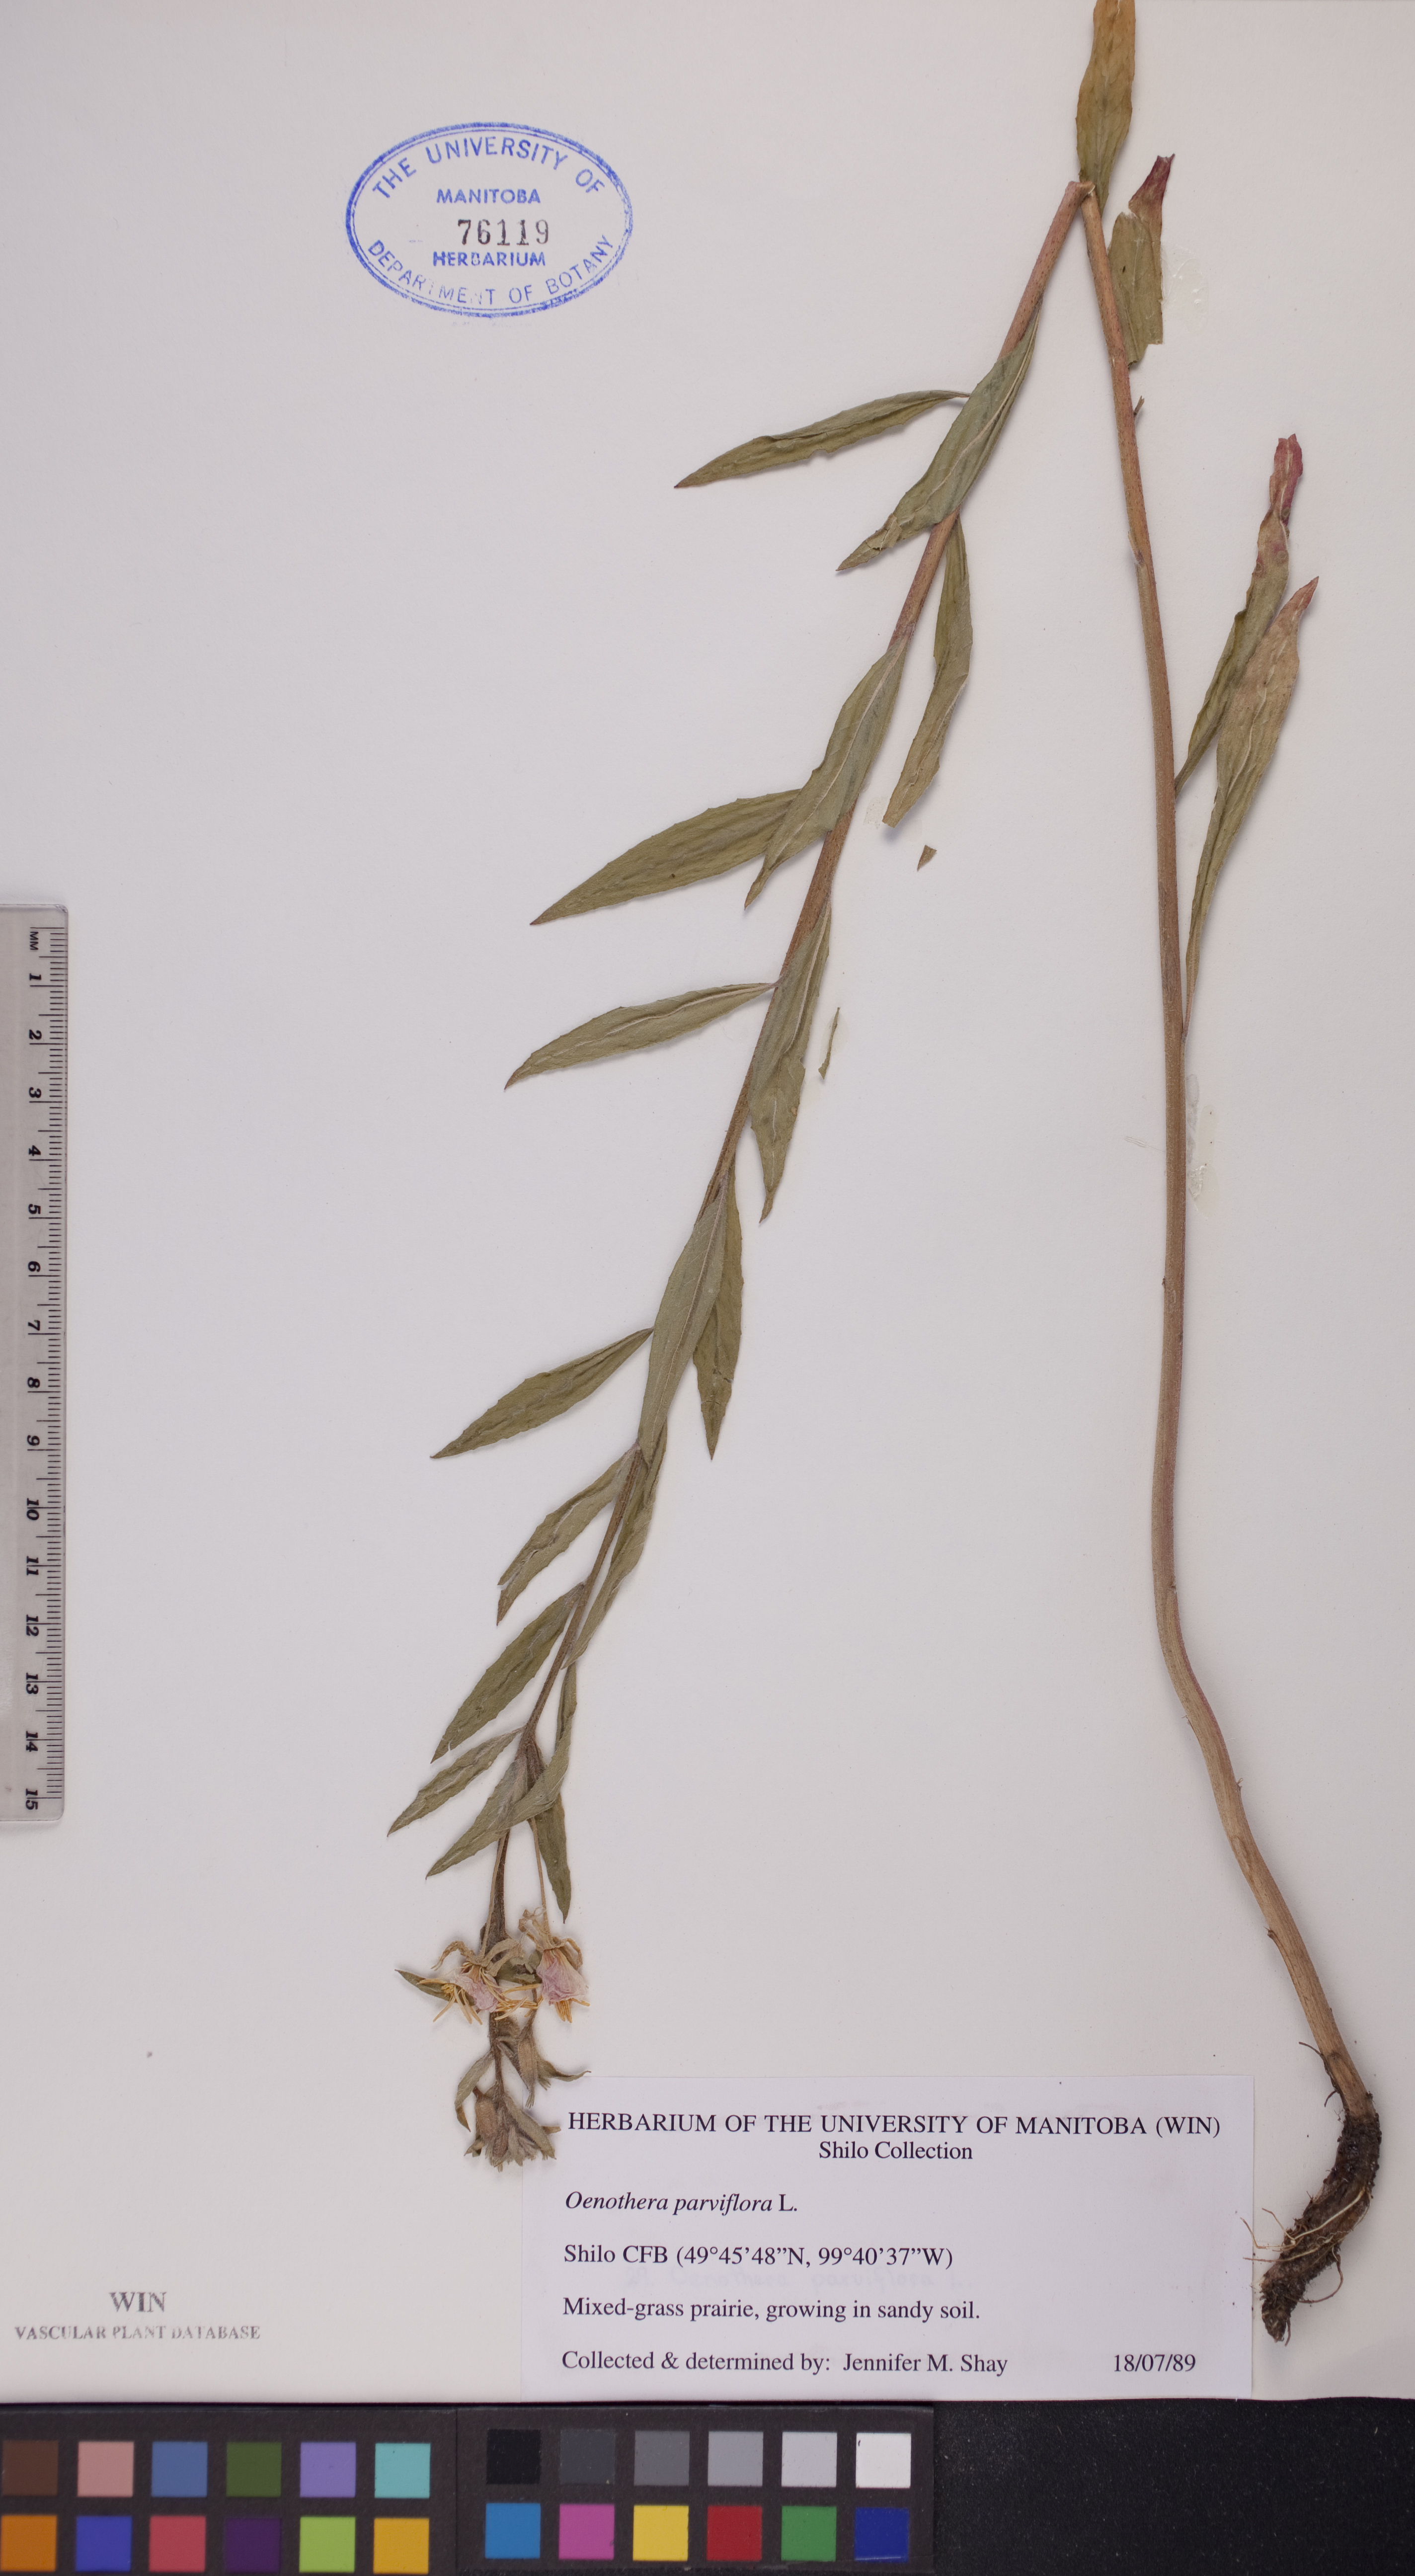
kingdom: Plantae
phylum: Tracheophyta
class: Magnoliopsida
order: Myrtales
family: Onagraceae
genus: Oenothera
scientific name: Oenothera parviflora
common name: Least evening-primrose
